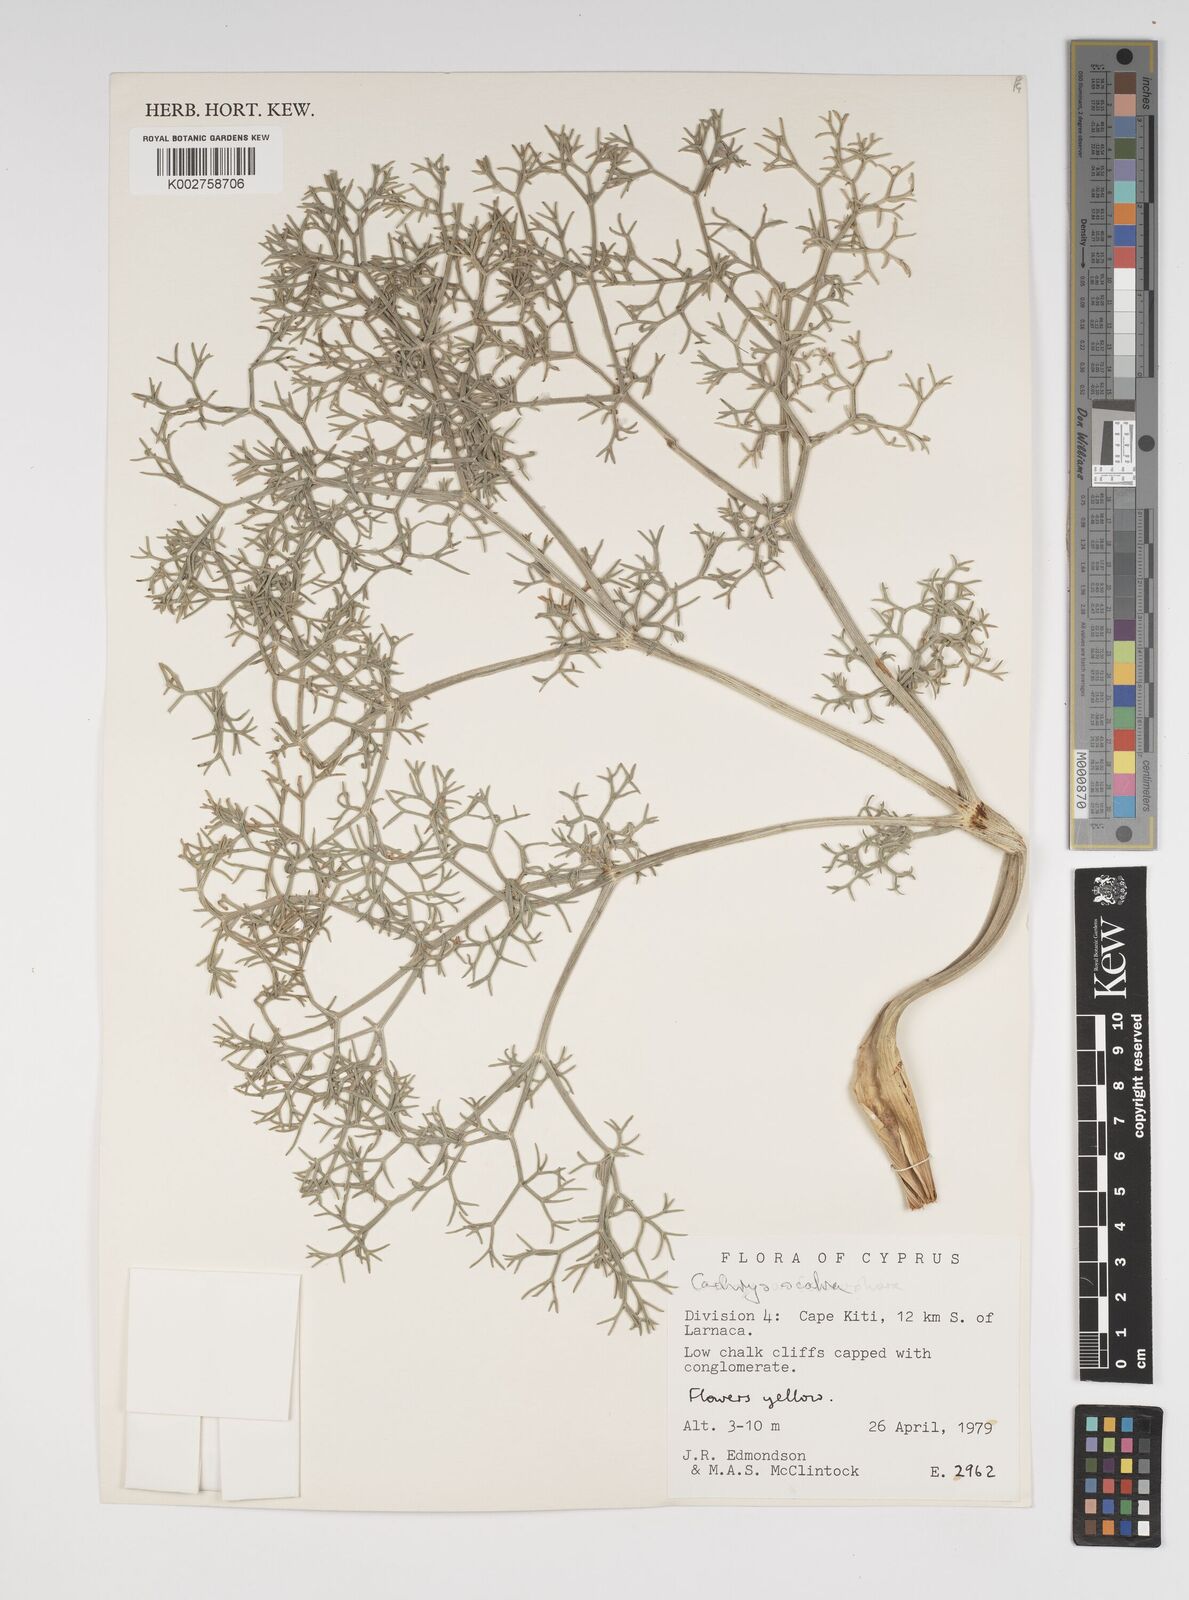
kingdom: Plantae
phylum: Tracheophyta
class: Magnoliopsida
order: Apiales
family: Apiaceae
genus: Cachrys
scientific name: Cachrys
